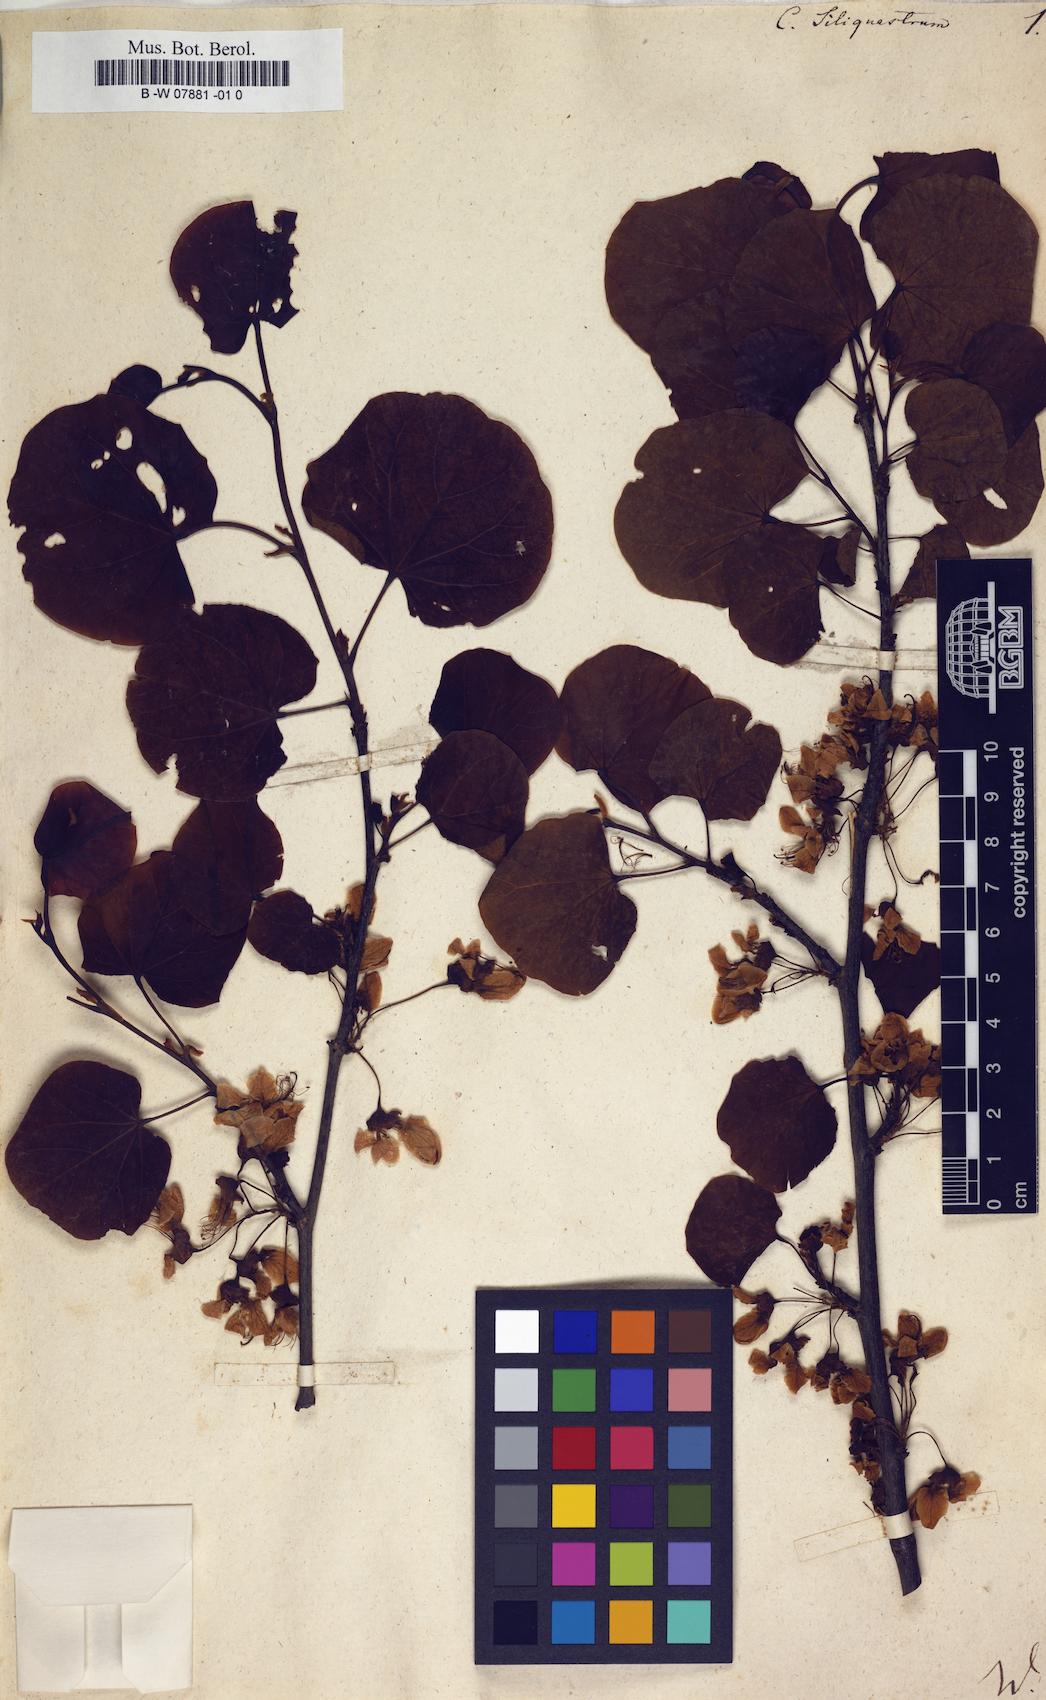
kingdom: Plantae
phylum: Tracheophyta
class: Magnoliopsida
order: Fabales
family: Fabaceae
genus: Cercis
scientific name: Cercis siliquastrum
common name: Judas tree
